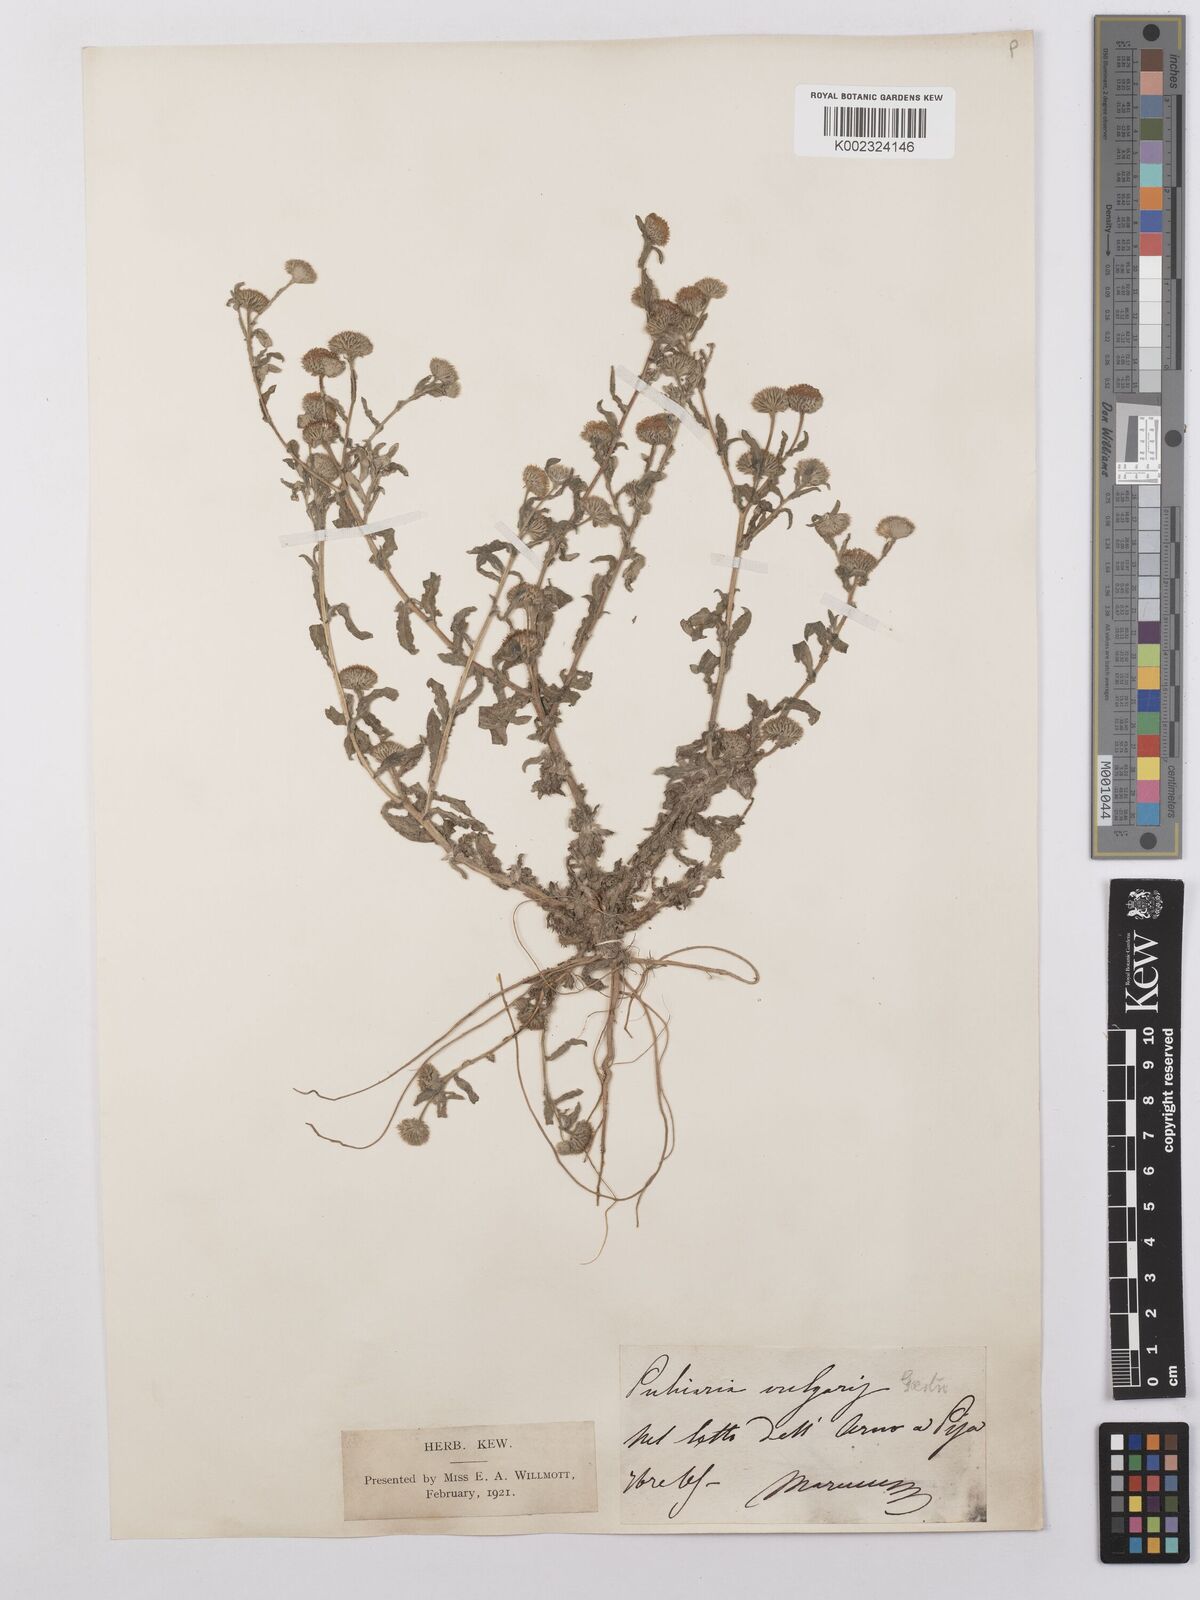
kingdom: Plantae
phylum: Tracheophyta
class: Magnoliopsida
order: Asterales
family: Asteraceae
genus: Pulicaria
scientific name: Pulicaria vulgaris
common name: Small fleabane
